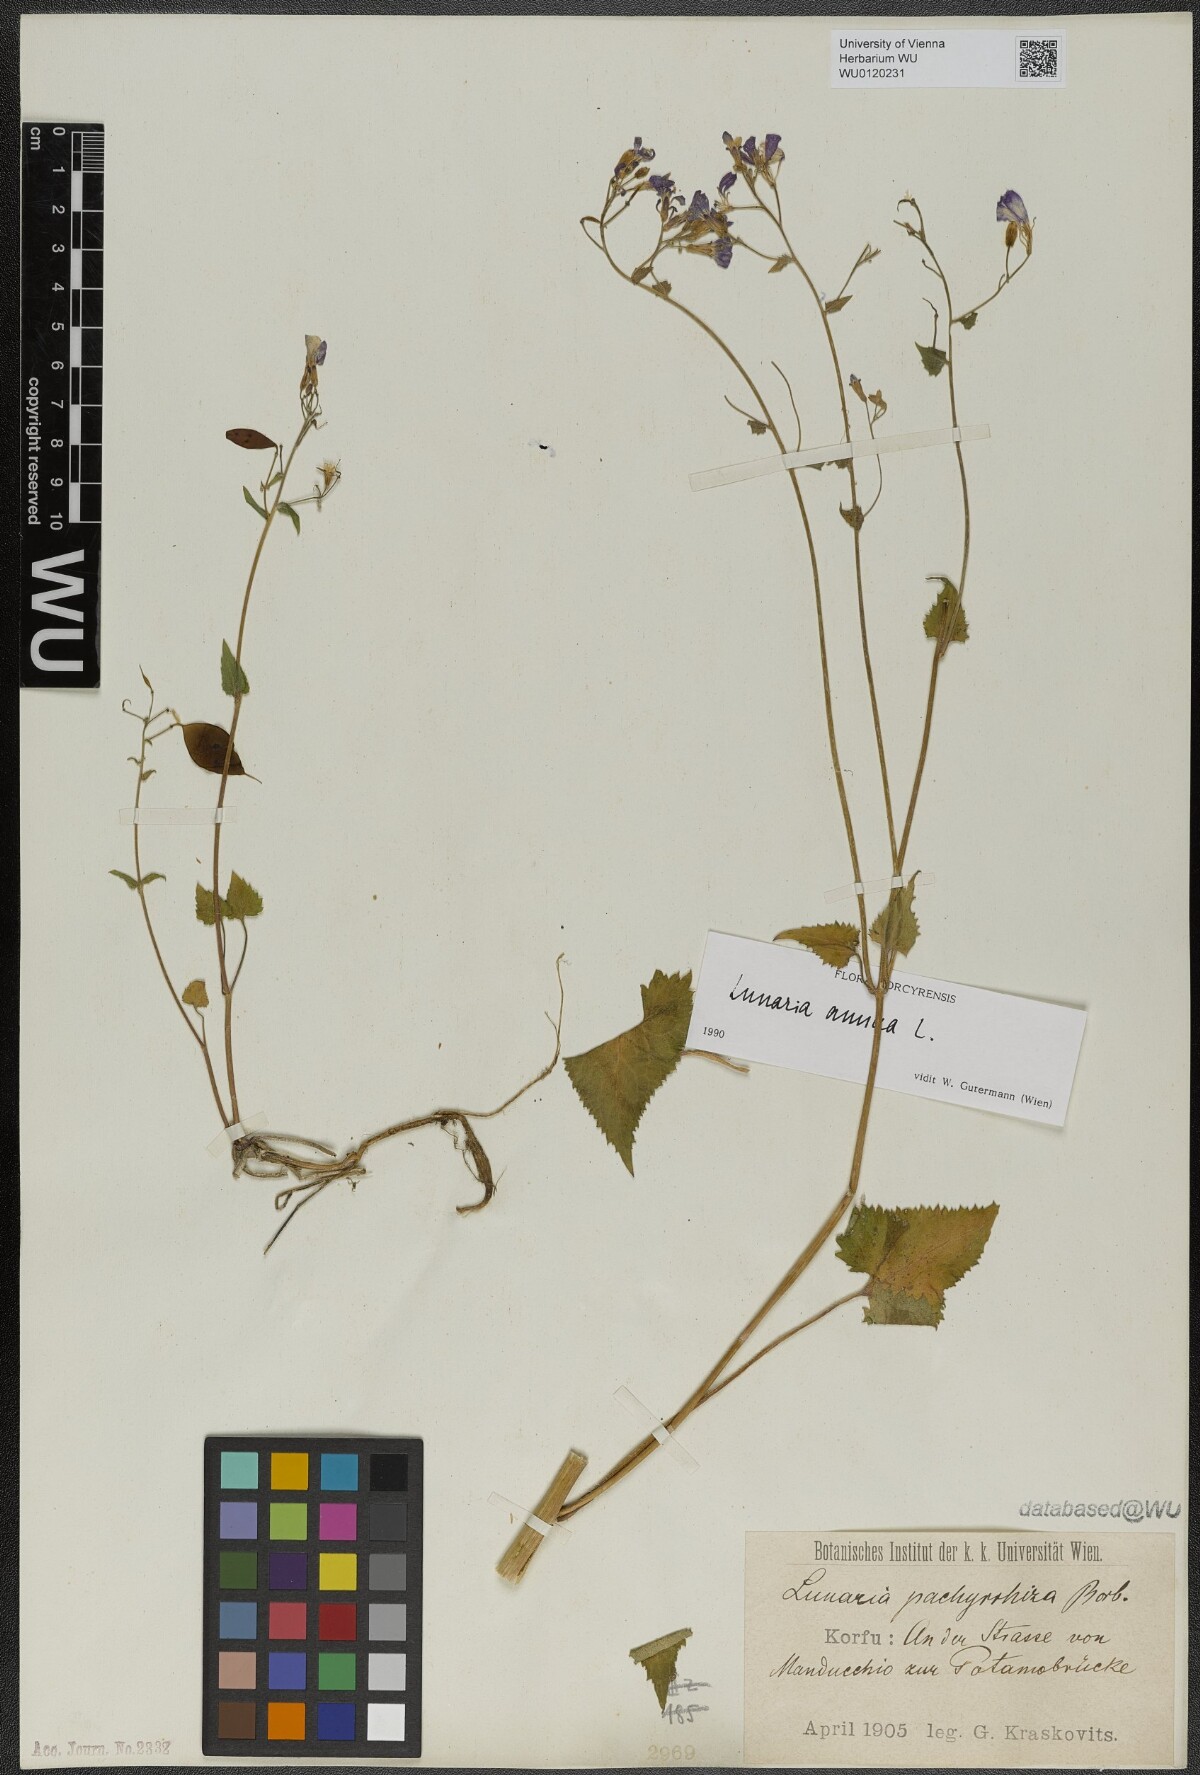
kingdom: Plantae
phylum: Tracheophyta
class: Magnoliopsida
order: Brassicales
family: Brassicaceae
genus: Lunaria
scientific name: Lunaria annua
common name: Honesty
